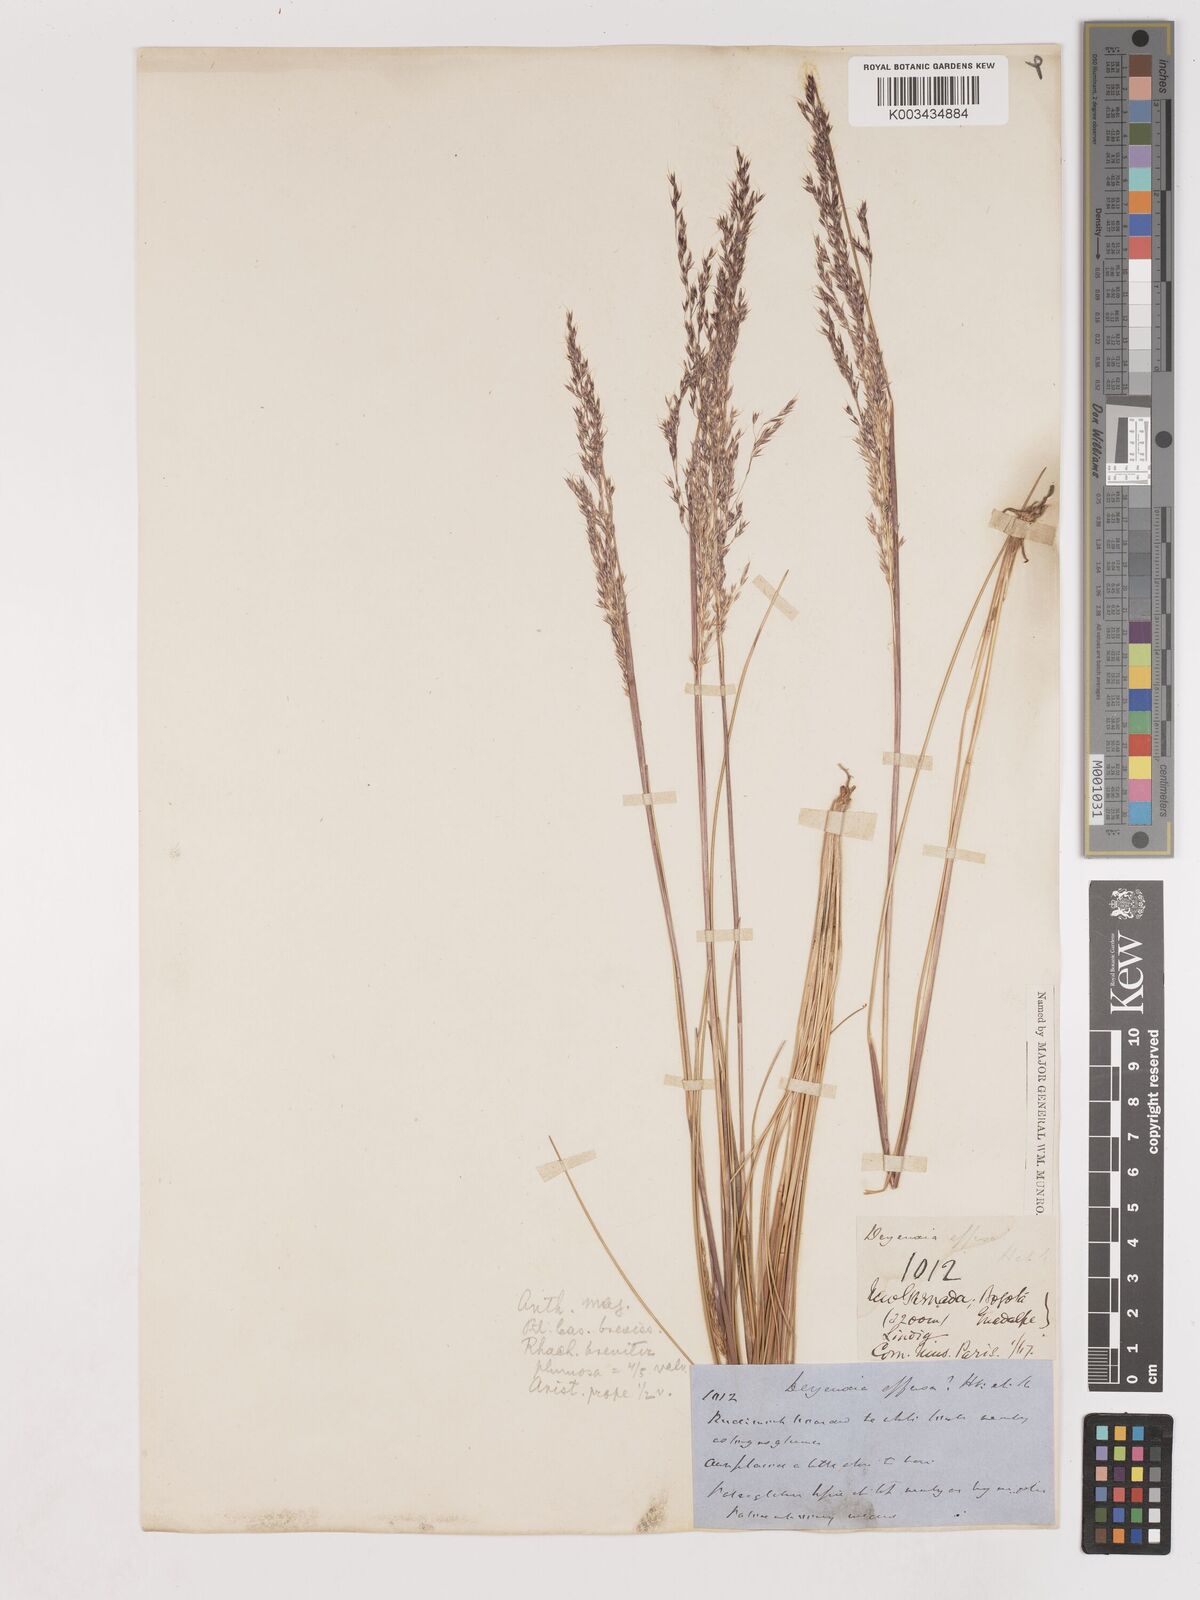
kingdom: Plantae
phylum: Tracheophyta
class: Liliopsida
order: Poales
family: Poaceae
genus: Calamagrostis
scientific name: Calamagrostis spruceana
